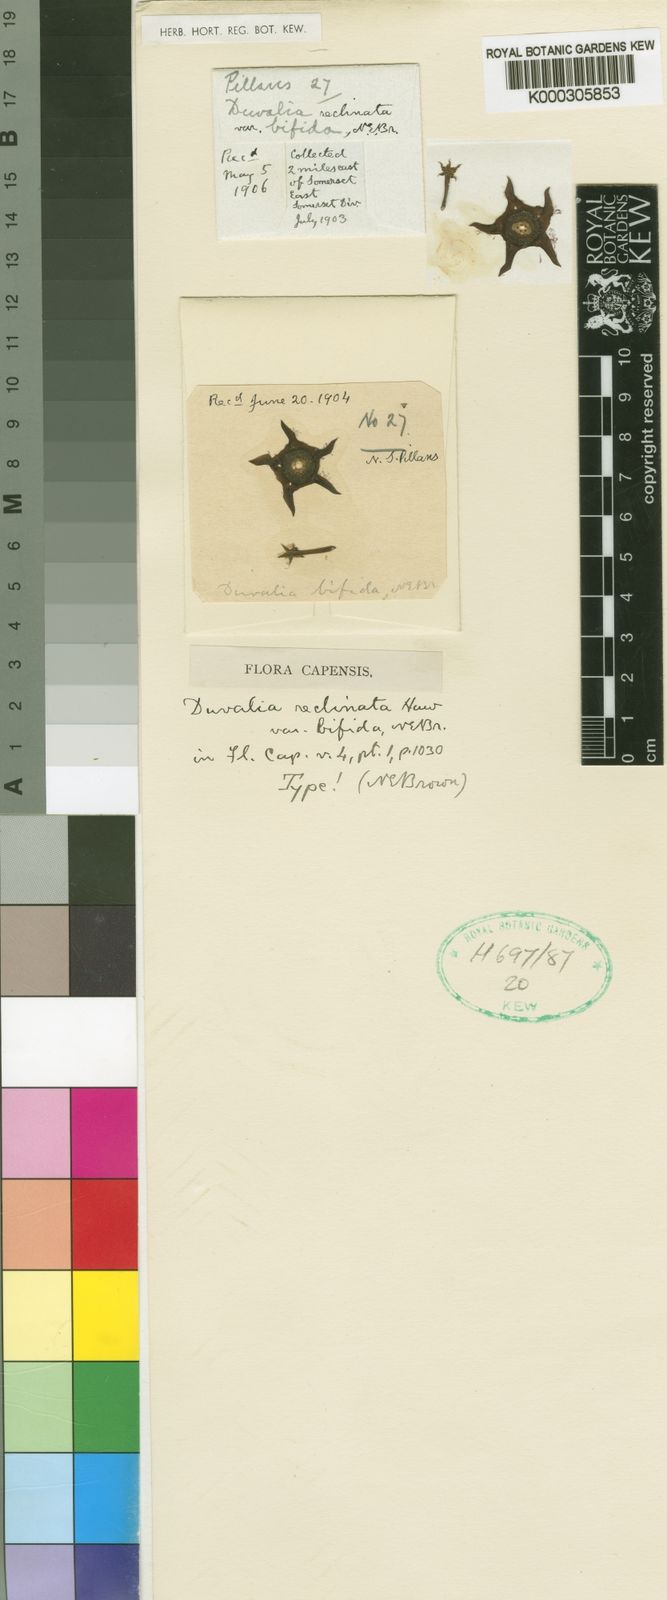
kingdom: Plantae
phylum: Tracheophyta
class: Magnoliopsida
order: Gentianales
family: Apocynaceae
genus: Ceropegia
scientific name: Ceropegia caespitosa
